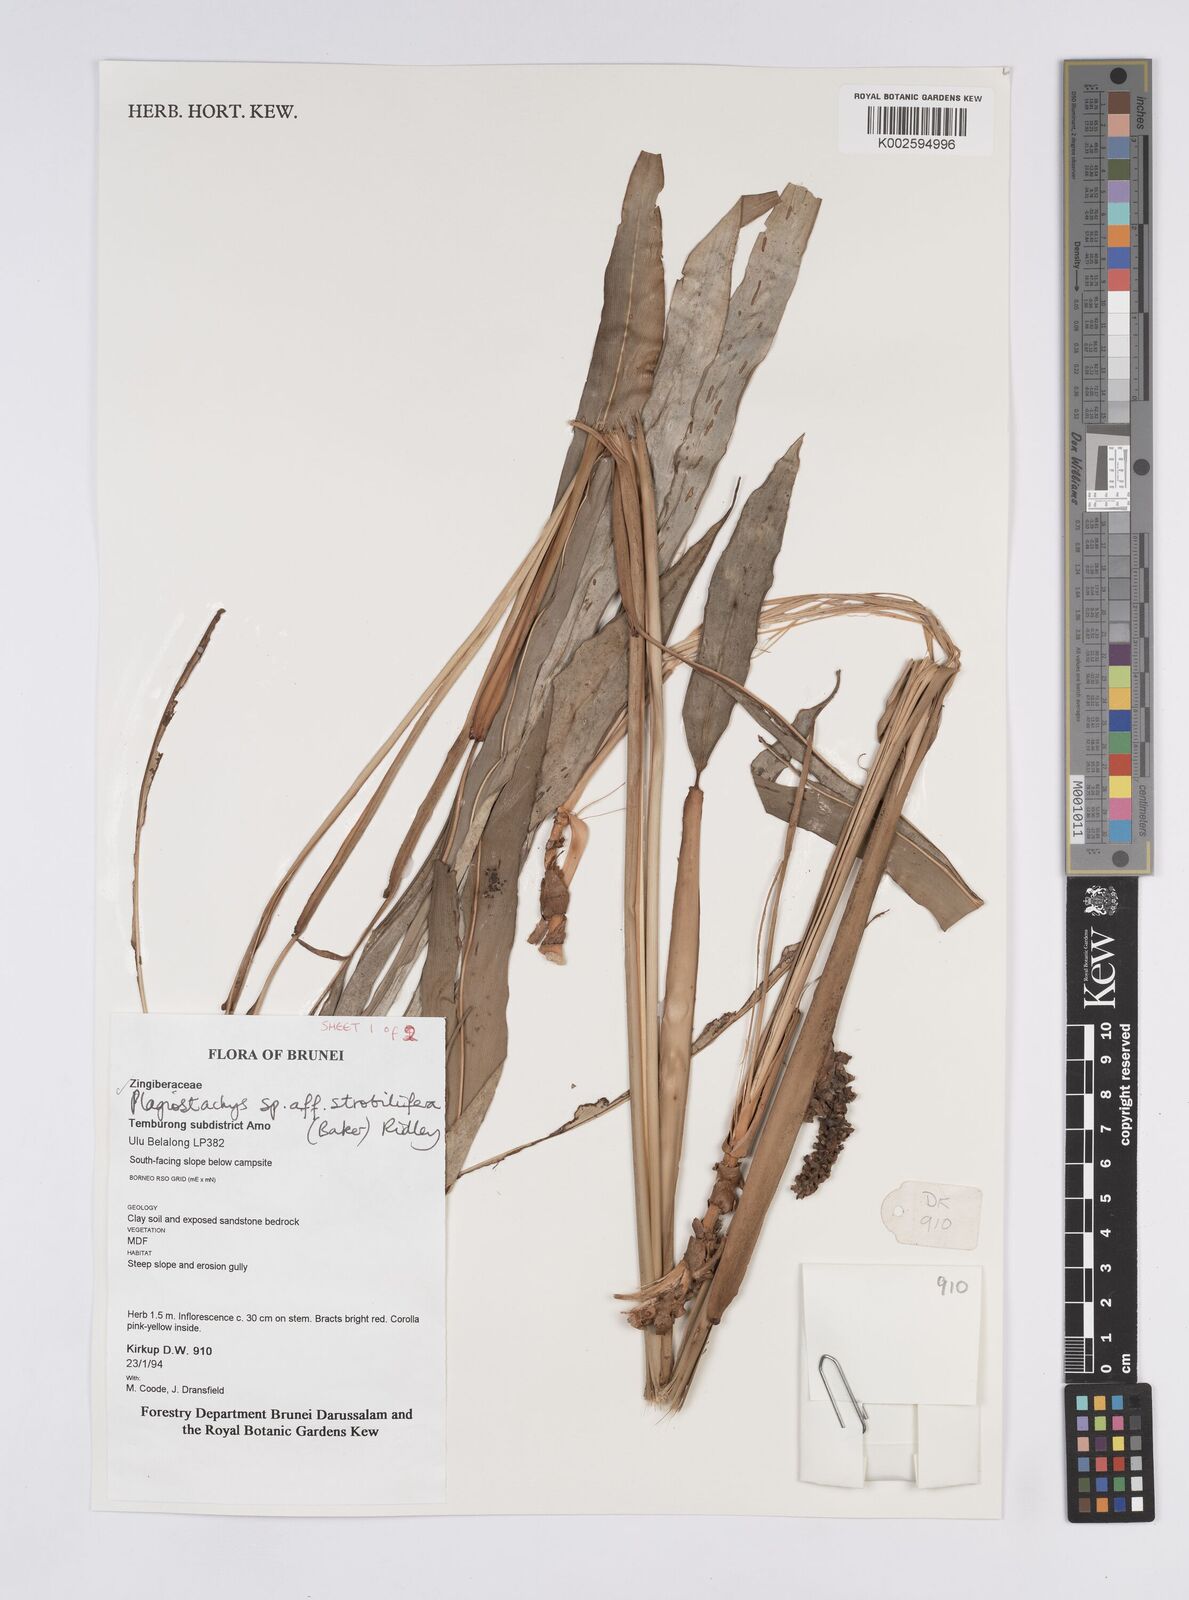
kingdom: Plantae
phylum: Tracheophyta
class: Liliopsida
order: Zingiberales
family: Zingiberaceae
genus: Plagiostachys
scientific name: Plagiostachys strobilifera
